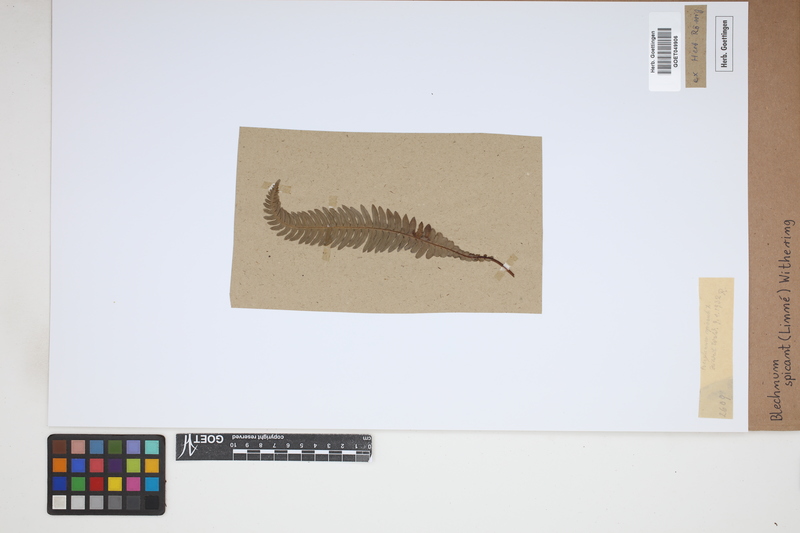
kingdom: Plantae
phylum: Tracheophyta
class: Polypodiopsida
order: Polypodiales
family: Blechnaceae
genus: Struthiopteris
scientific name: Struthiopteris spicant
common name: Deer fern
